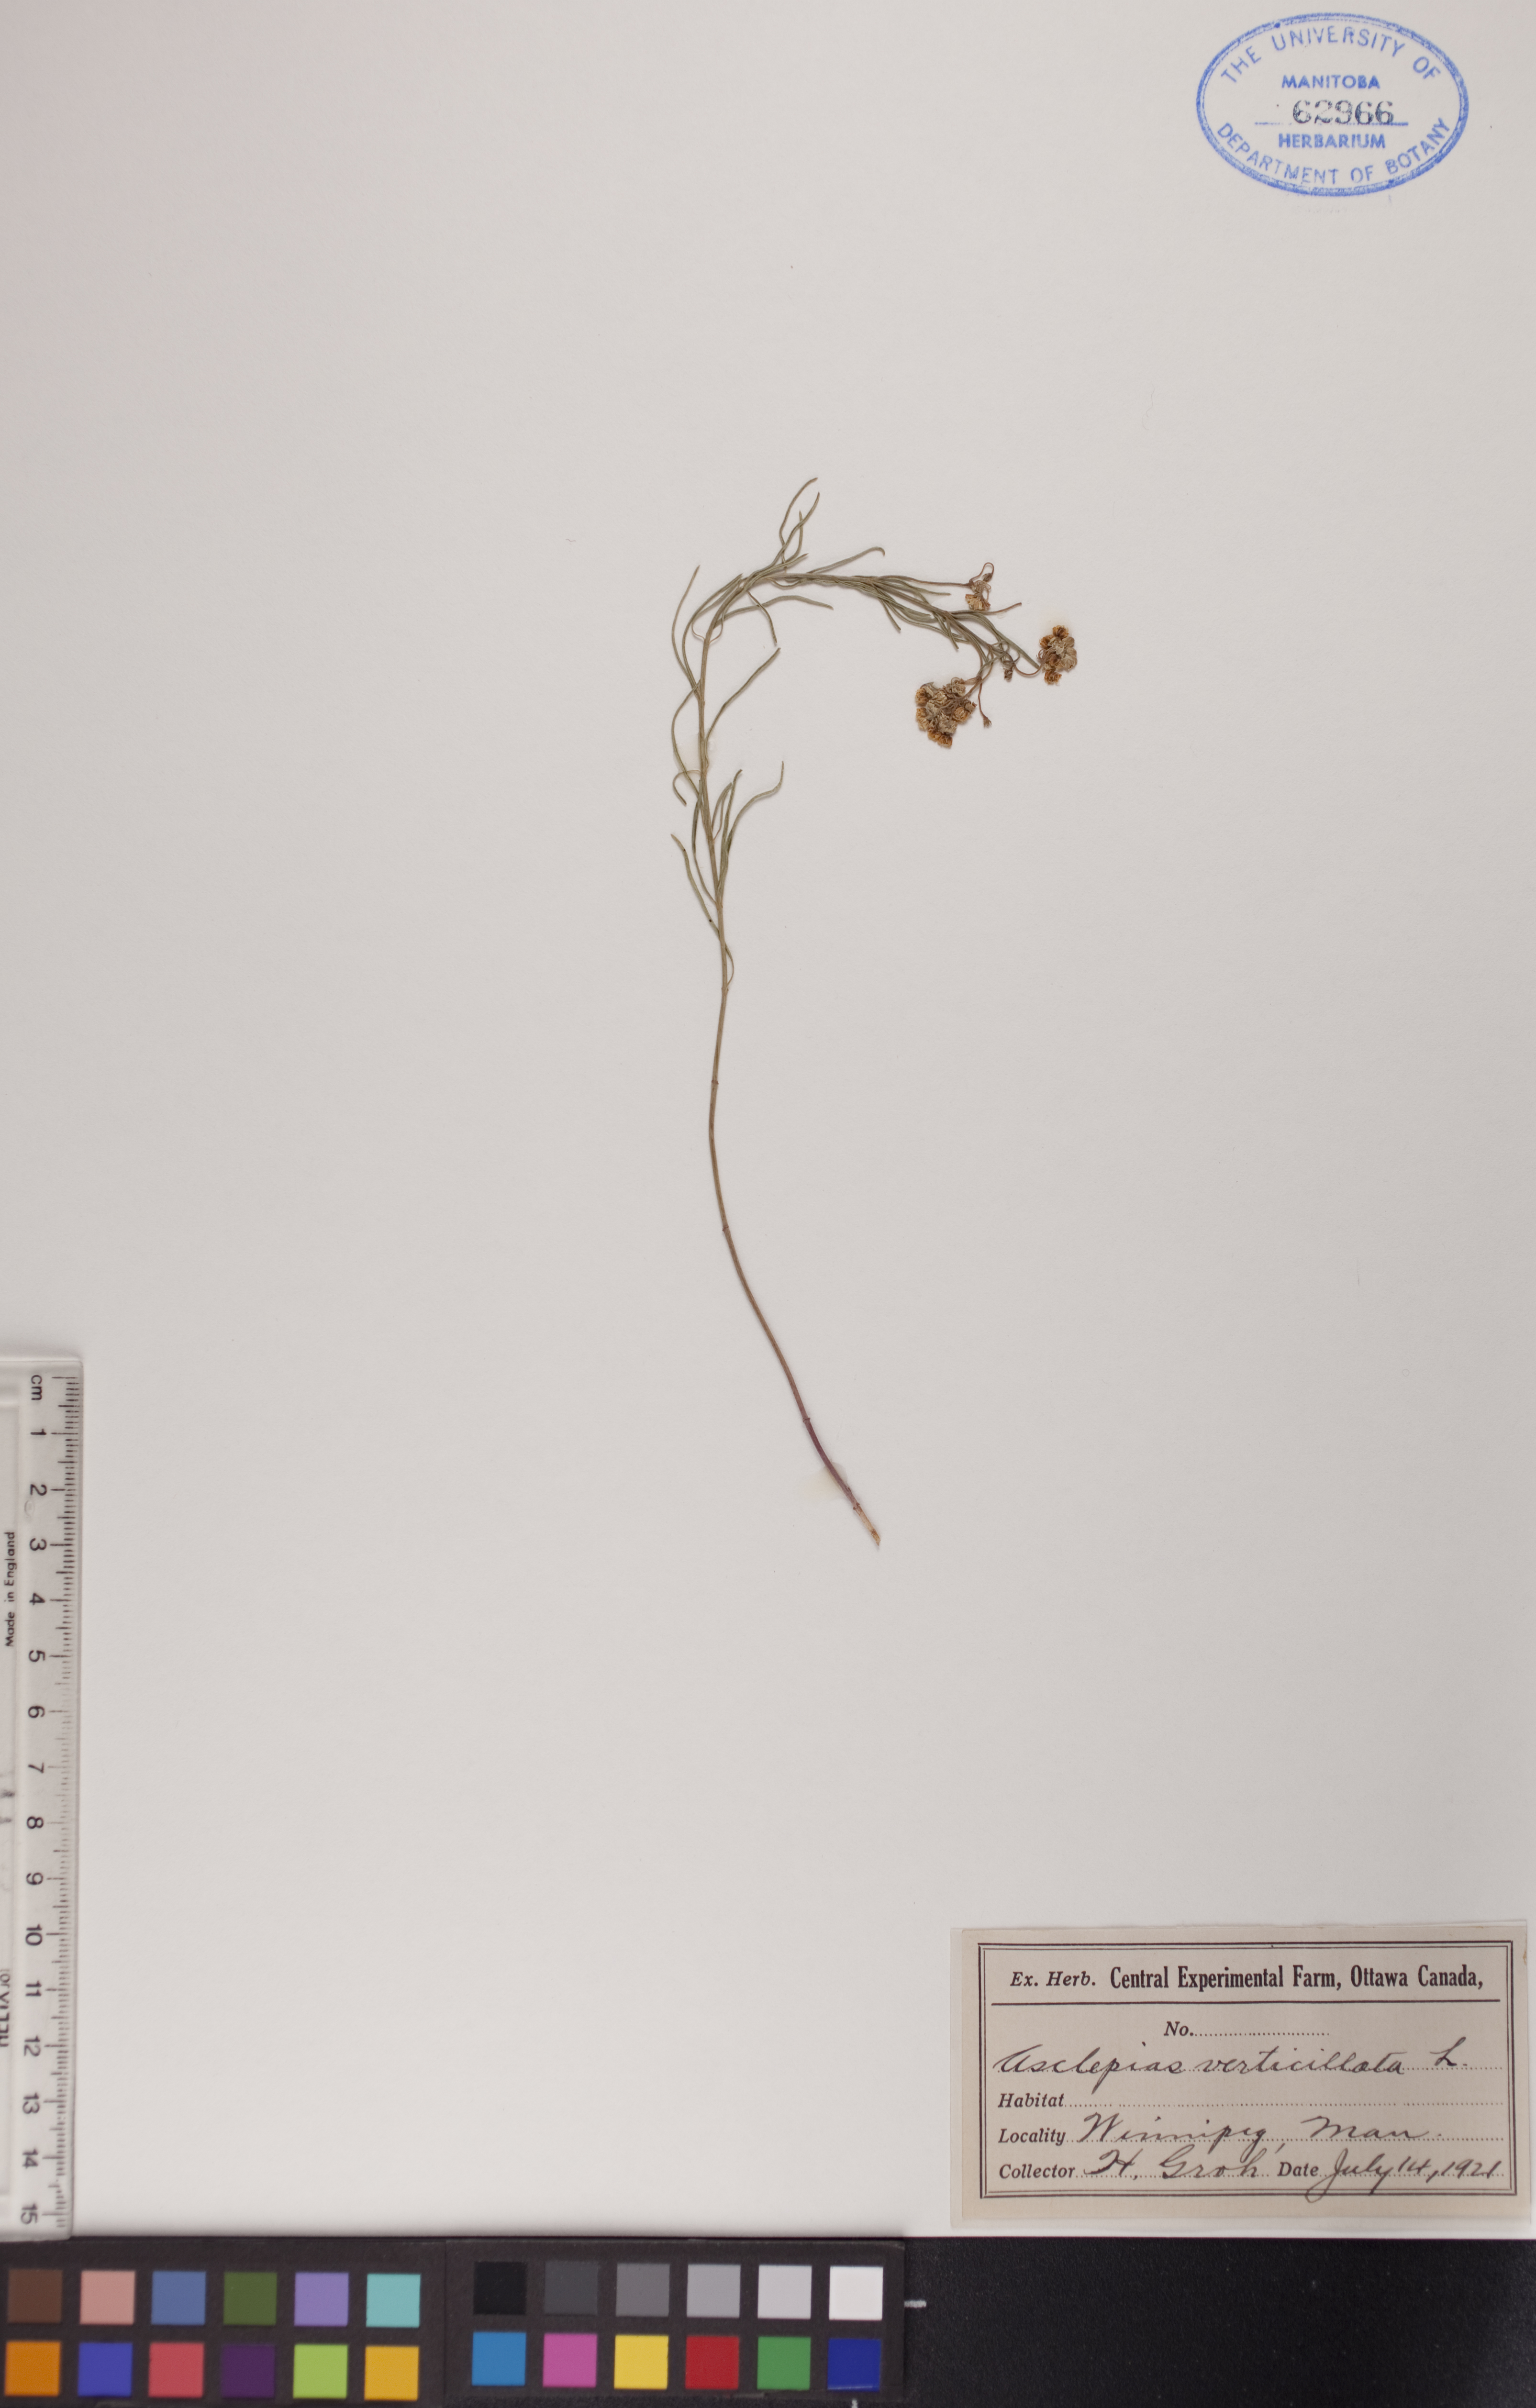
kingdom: Plantae
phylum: Tracheophyta
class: Magnoliopsida
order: Gentianales
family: Apocynaceae
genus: Asclepias
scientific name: Asclepias verticillata
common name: Eastern whorled milkweed
